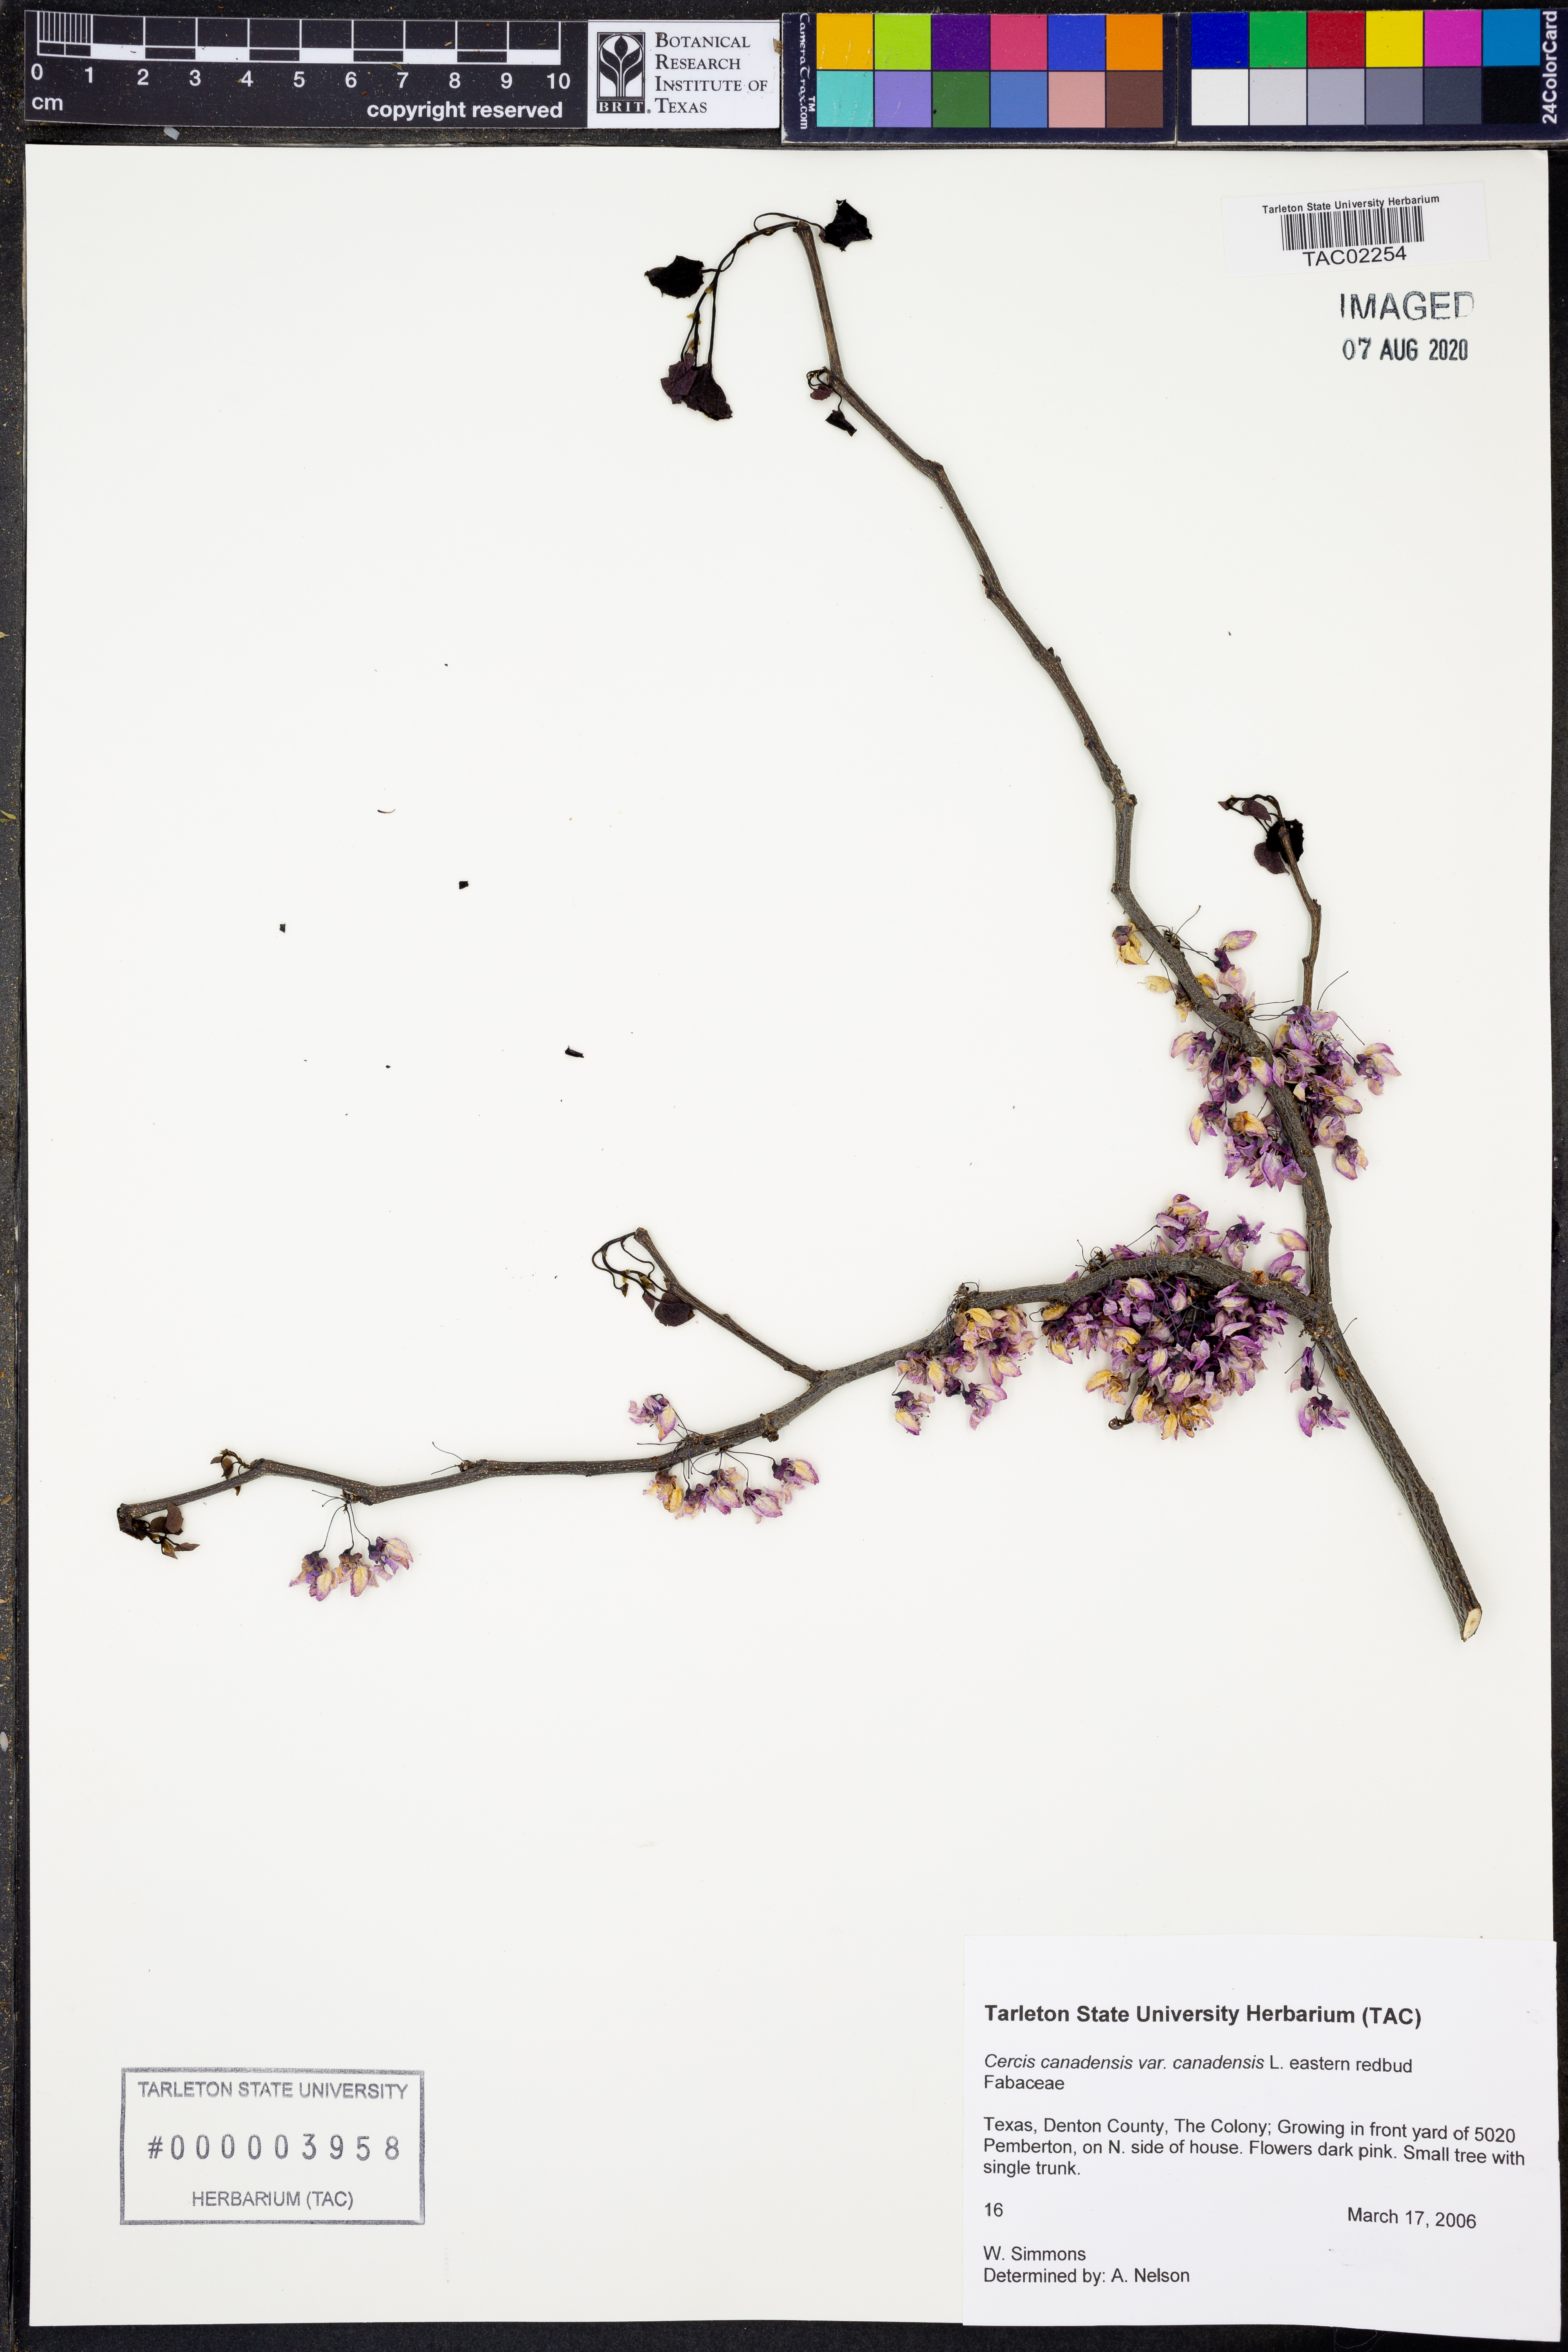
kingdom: Plantae
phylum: Tracheophyta
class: Magnoliopsida
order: Fabales
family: Fabaceae
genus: Cercis
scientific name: Cercis canadensis
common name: Eastern redbud
